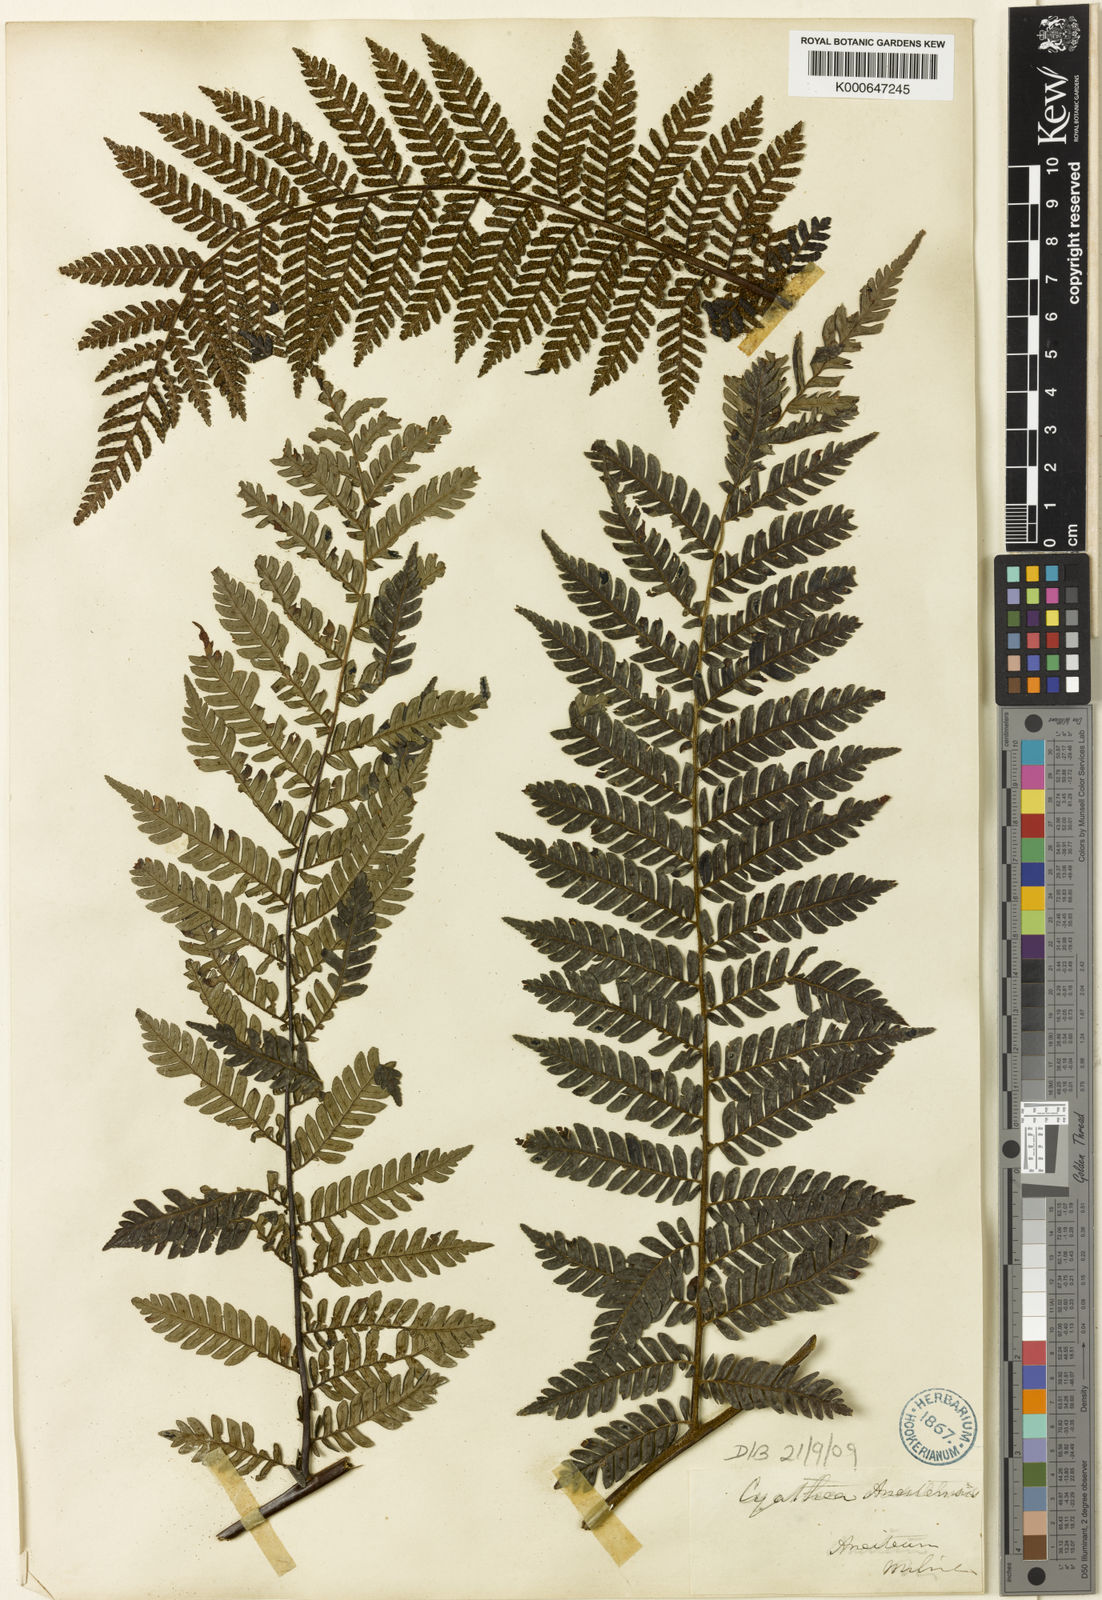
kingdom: Plantae
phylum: Tracheophyta
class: Polypodiopsida
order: Cyatheales
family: Cyatheaceae
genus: Alsophila
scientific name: Alsophila aneitensis
